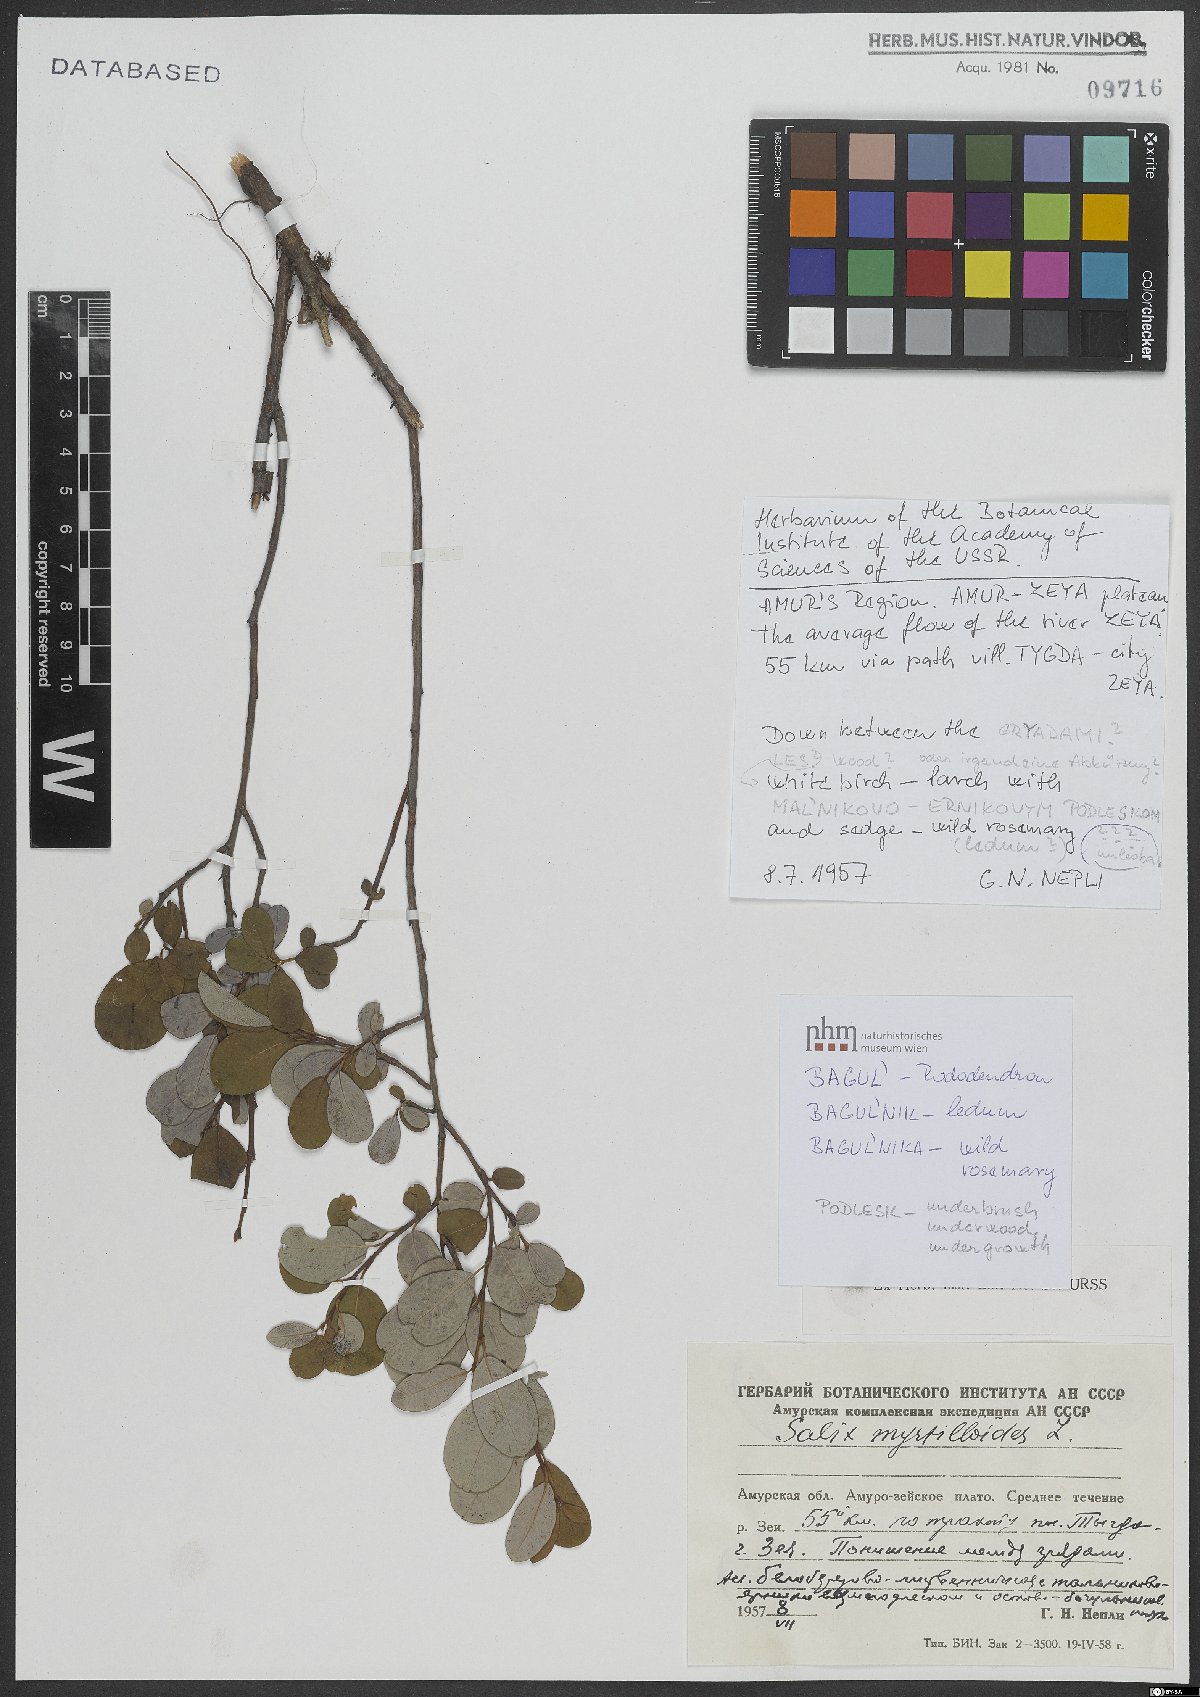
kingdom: Plantae
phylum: Tracheophyta
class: Magnoliopsida
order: Malpighiales
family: Salicaceae
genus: Salix
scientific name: Salix myrtilloides
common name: Myrtle-leaved willow
